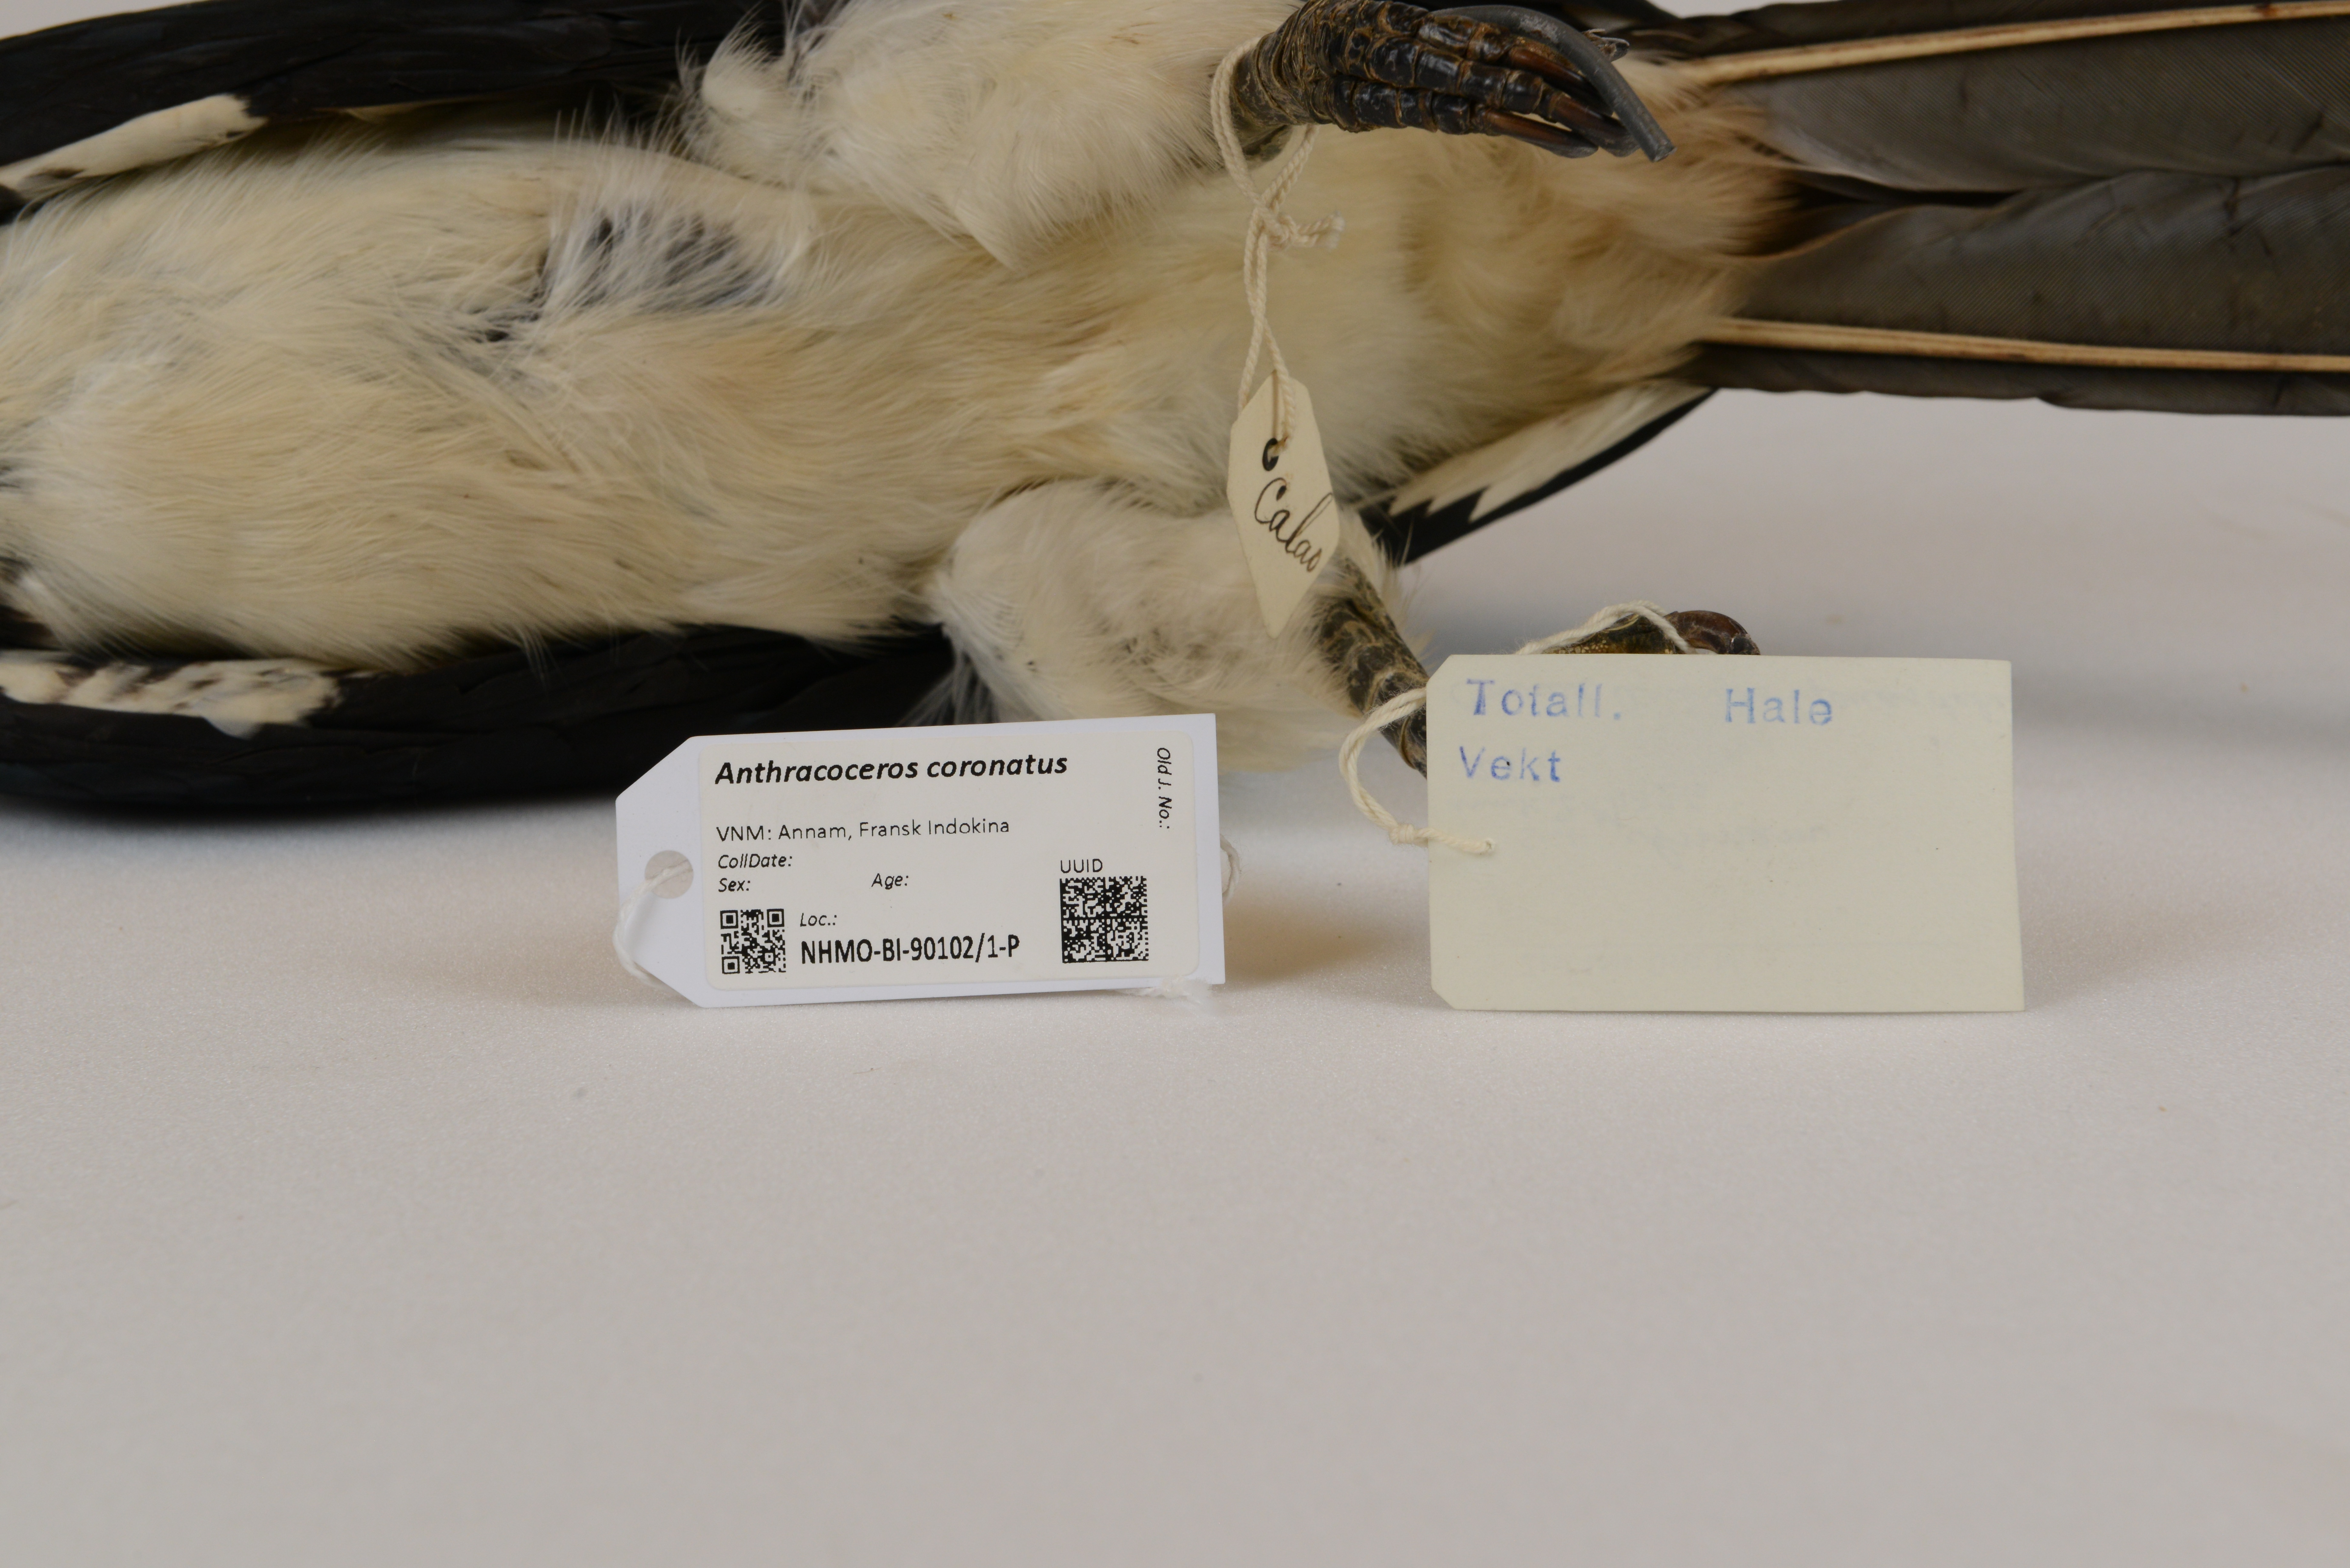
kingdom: Animalia
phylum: Chordata
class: Aves
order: Bucerotiformes
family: Bucerotidae
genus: Anthracoceros
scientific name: Anthracoceros coronatus
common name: Malabar pied hornbill
